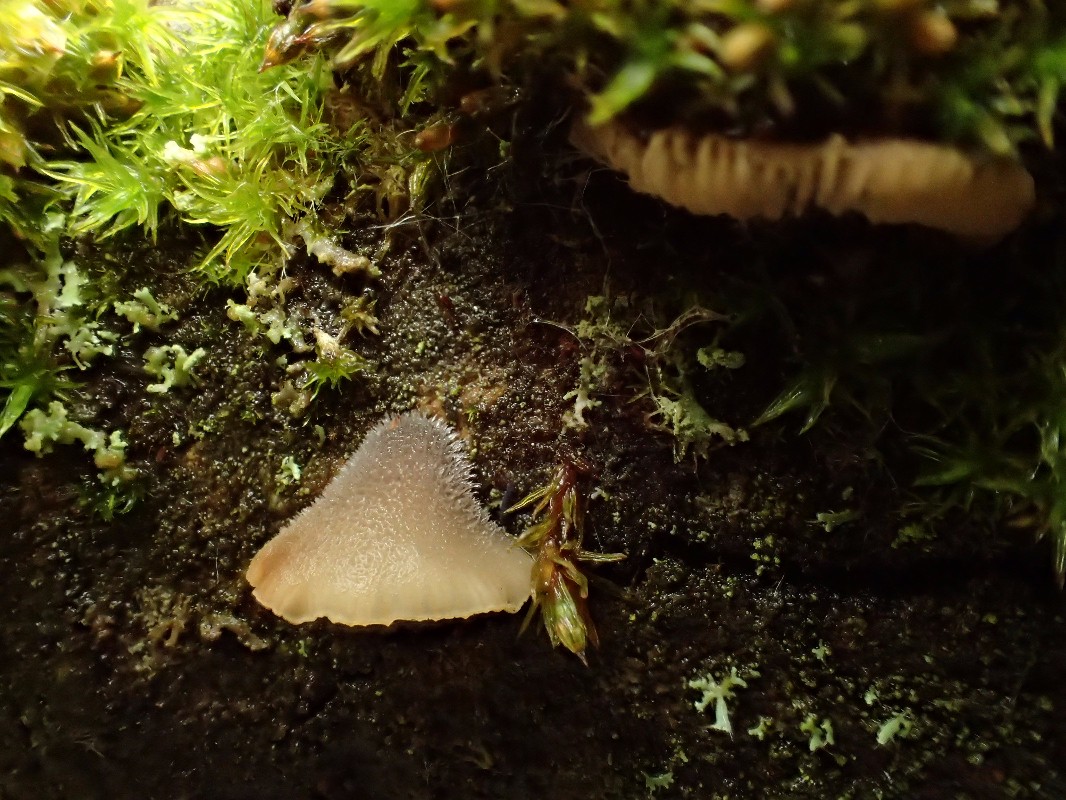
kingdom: Fungi
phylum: Basidiomycota
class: Agaricomycetes
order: Agaricales
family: Pleurotaceae
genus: Hohenbuehelia
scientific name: Hohenbuehelia fluxilis
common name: pile-filthat
